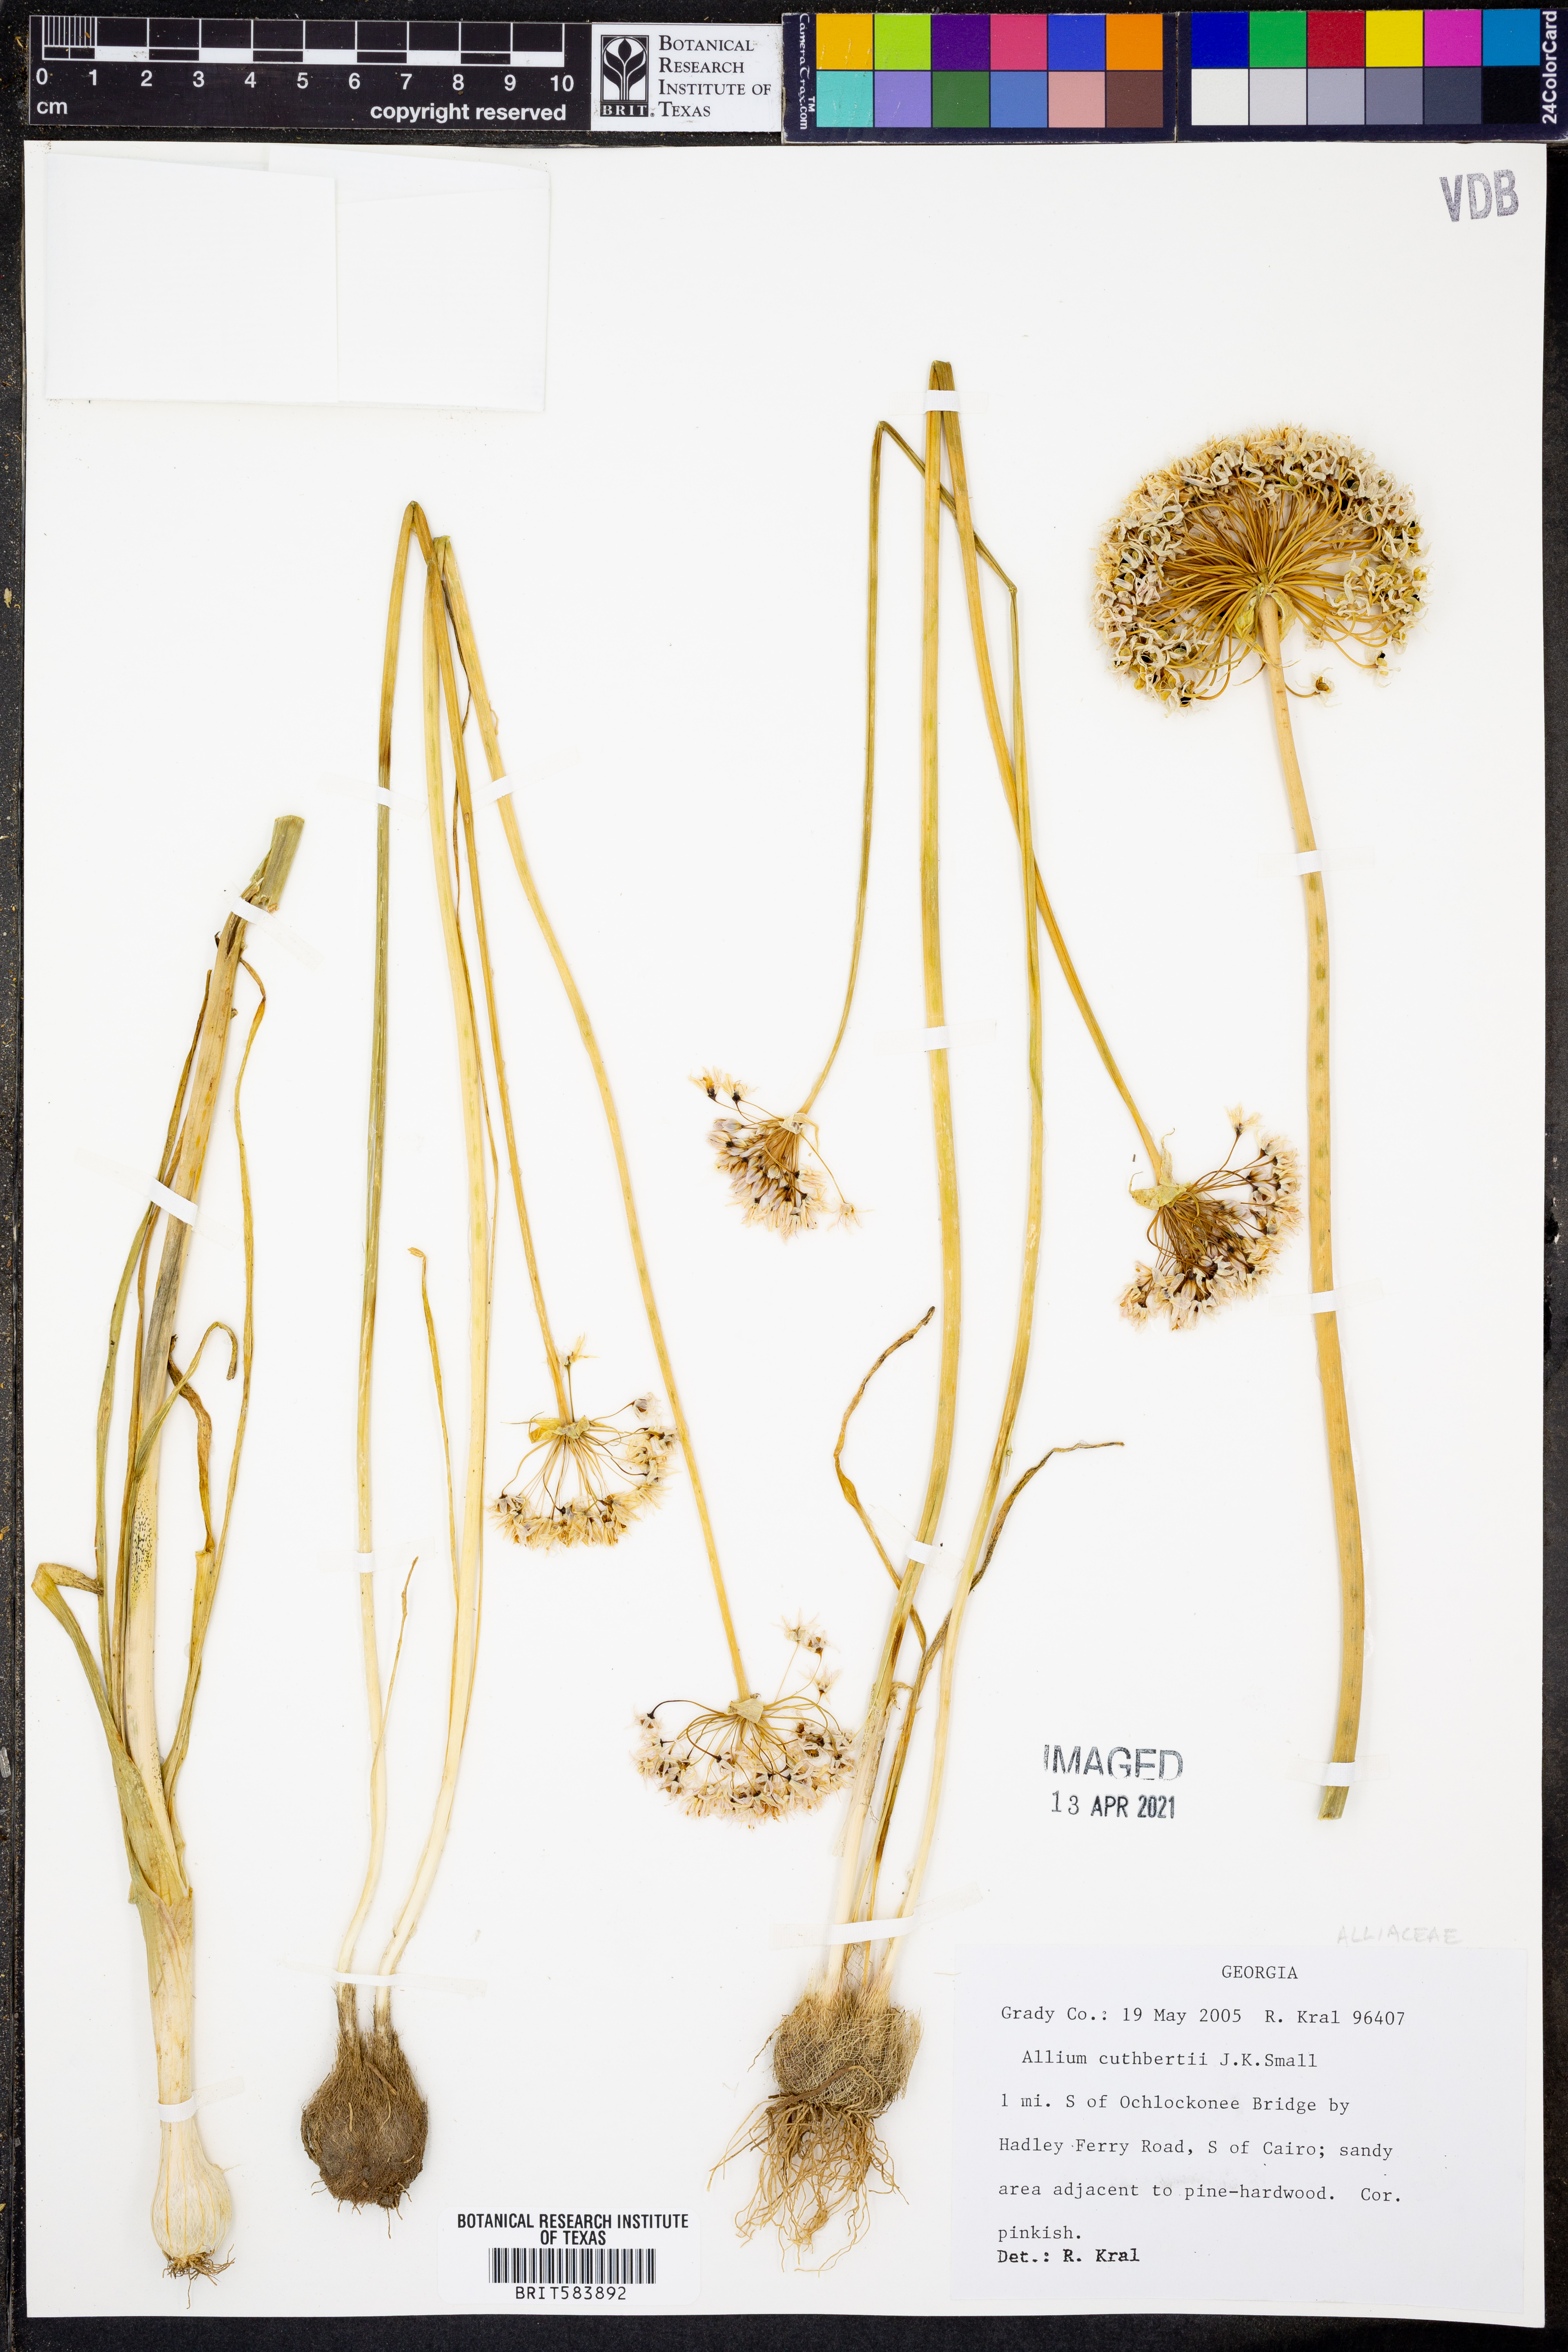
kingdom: Plantae
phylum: Tracheophyta
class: Liliopsida
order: Asparagales
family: Amaryllidaceae
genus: Allium
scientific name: Allium cuthbertii
